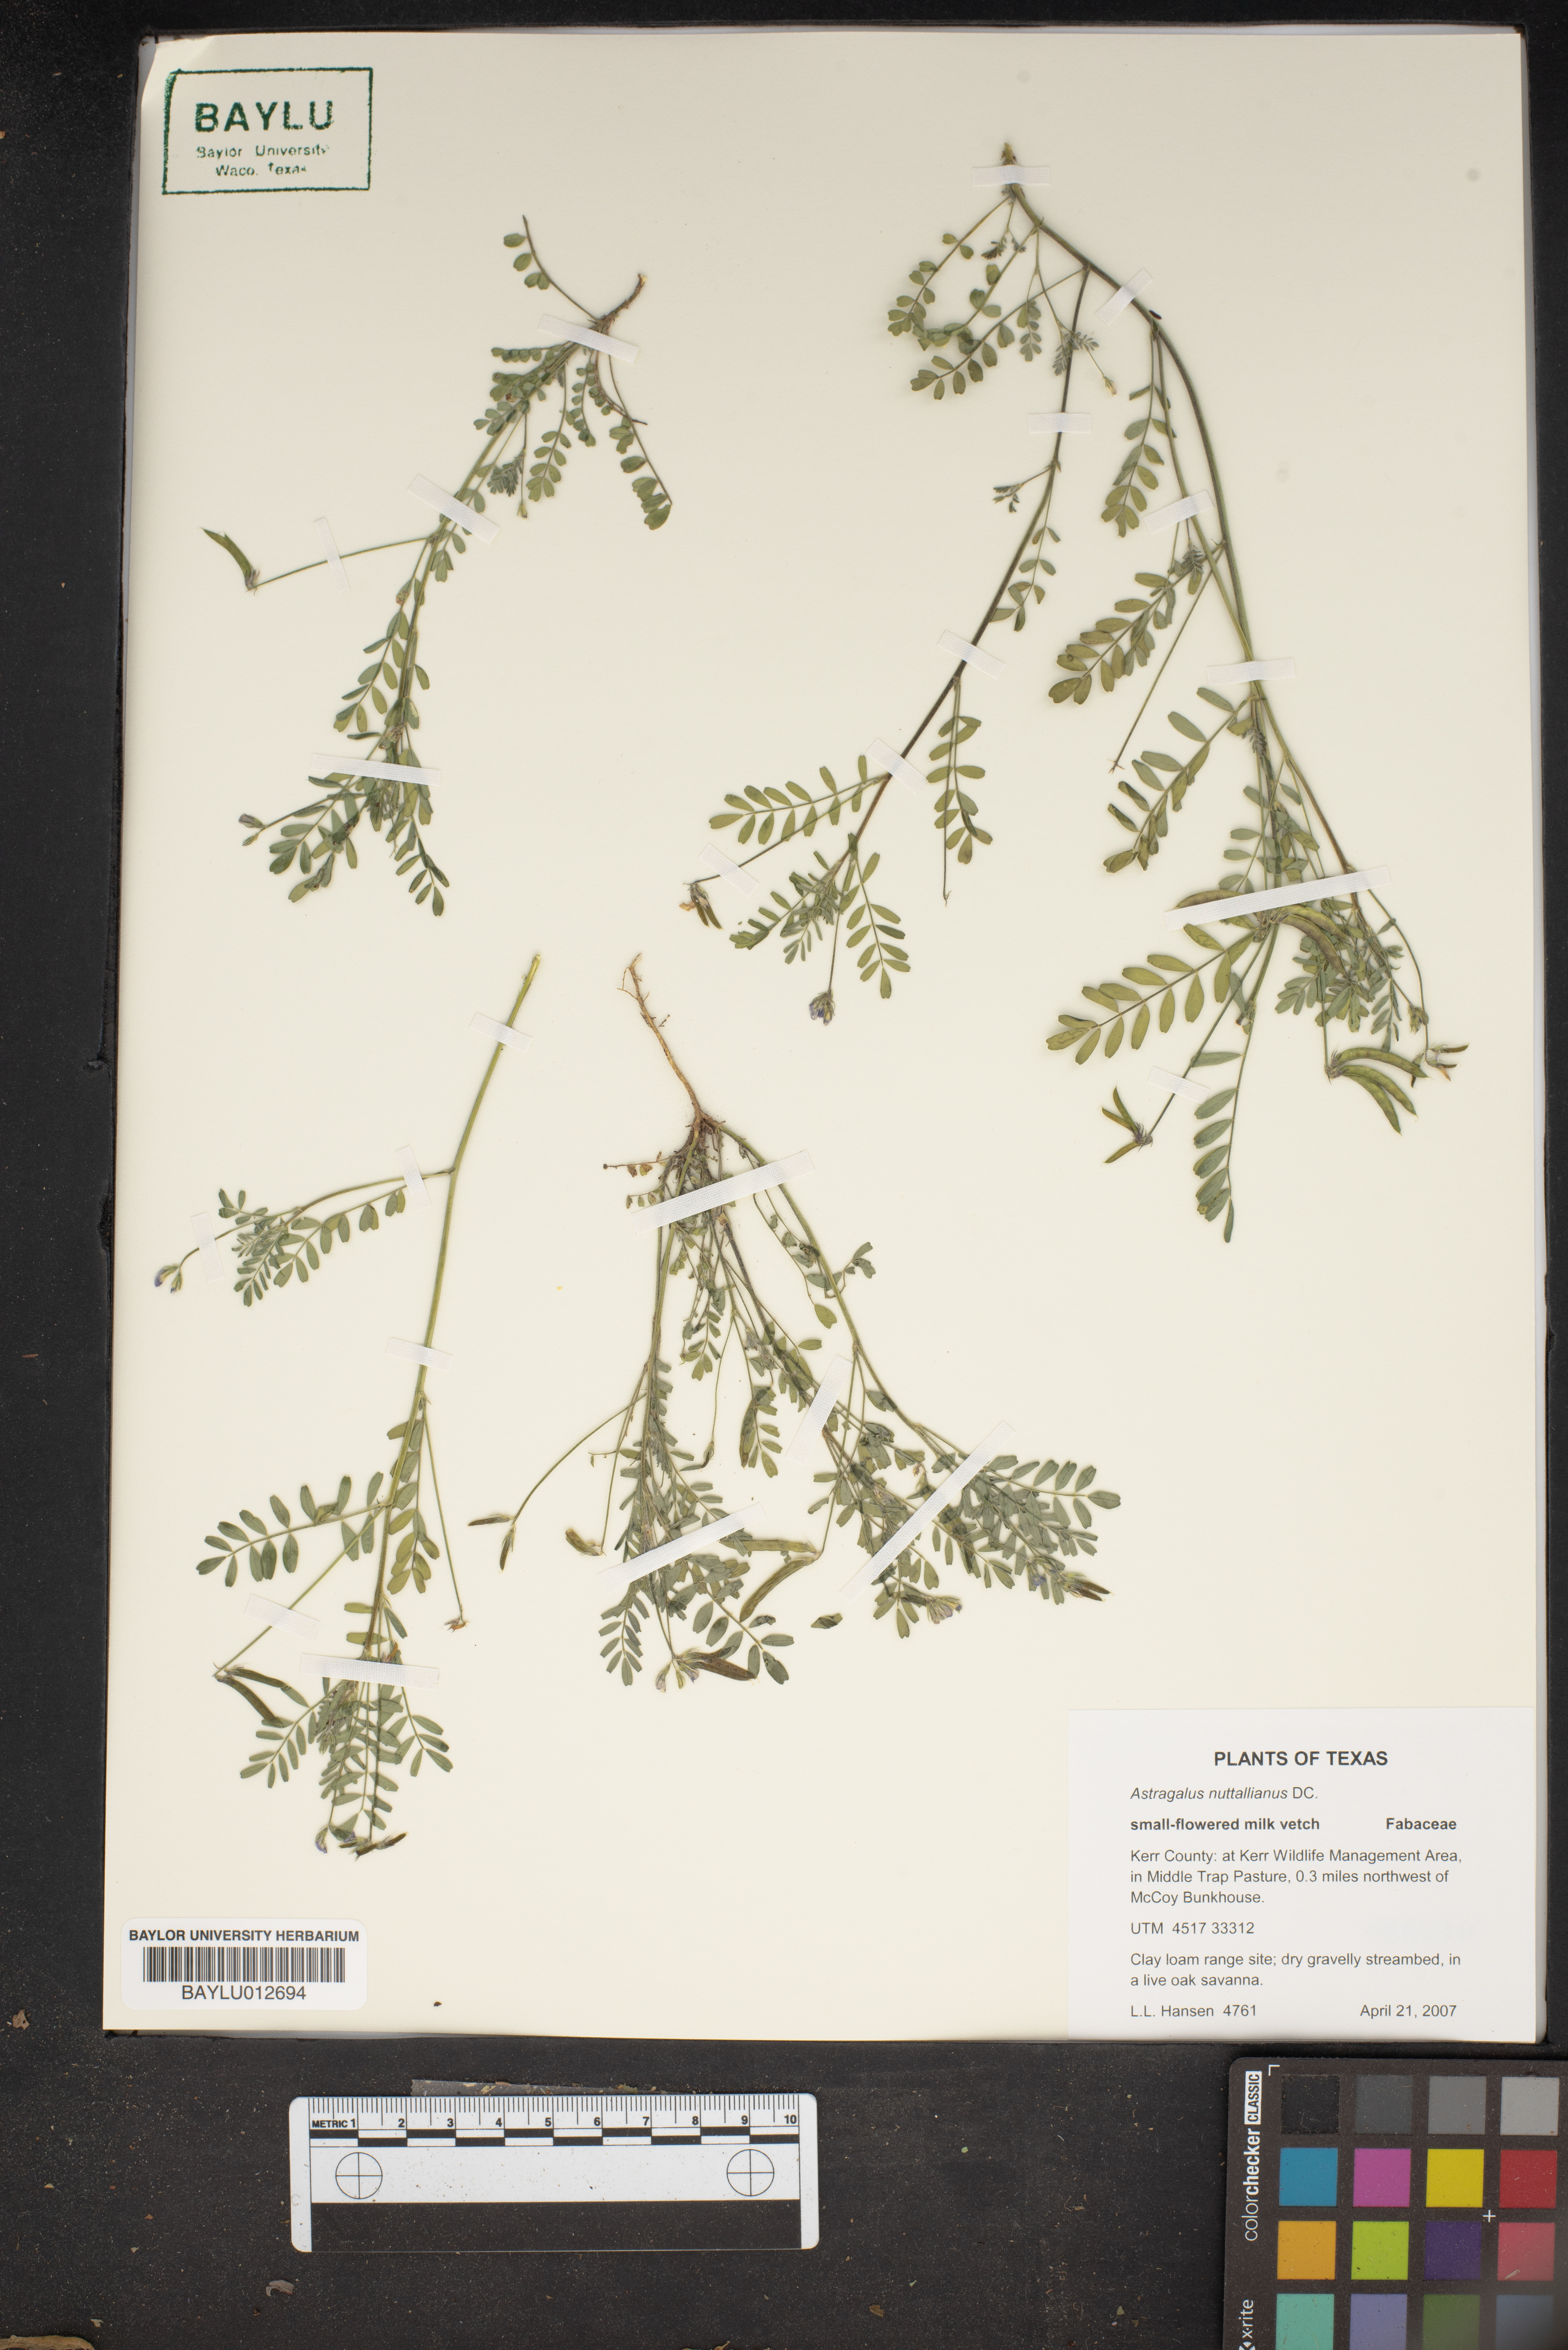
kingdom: Plantae
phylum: Tracheophyta
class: Magnoliopsida
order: Fabales
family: Fabaceae
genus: Astragalus
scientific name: Astragalus nuttallianus
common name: Smallflowered milkvetch
